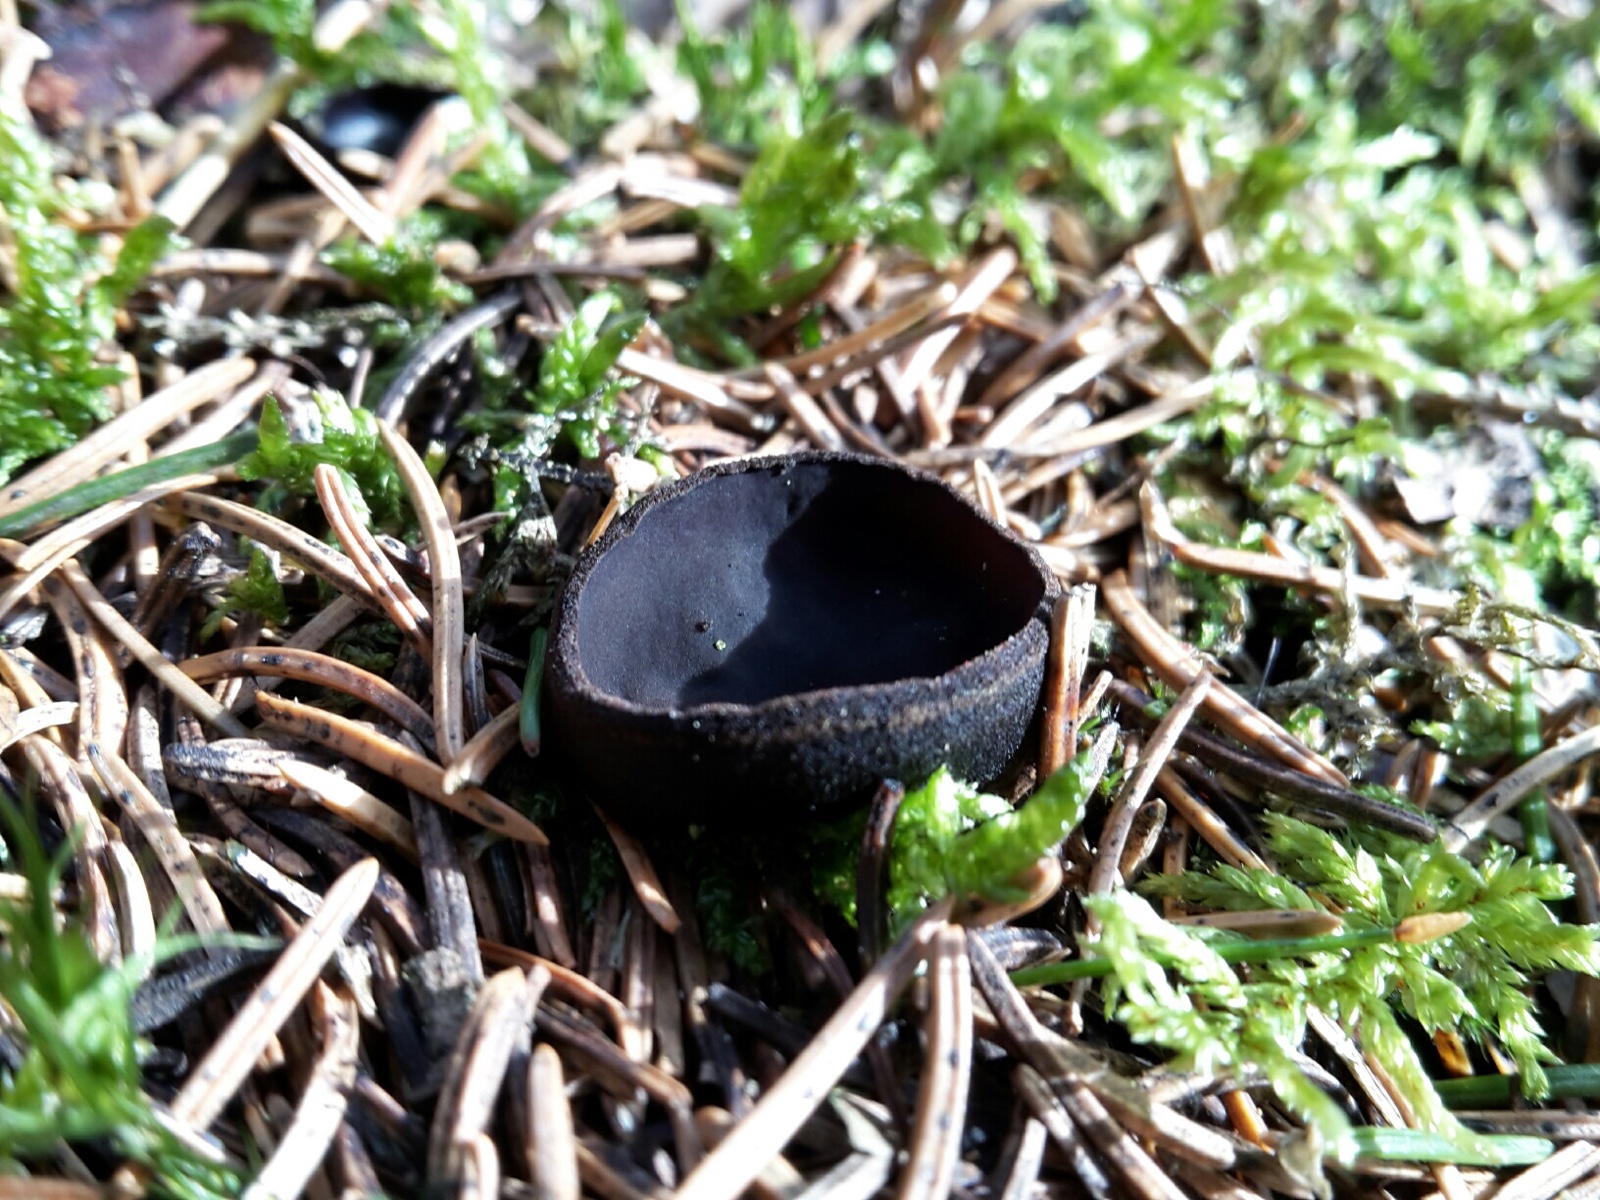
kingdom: Fungi
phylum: Ascomycota
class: Pezizomycetes
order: Pezizales
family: Sarcosomataceae
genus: Pseudoplectania
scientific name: Pseudoplectania nigrella
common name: almindelig sortbæger
